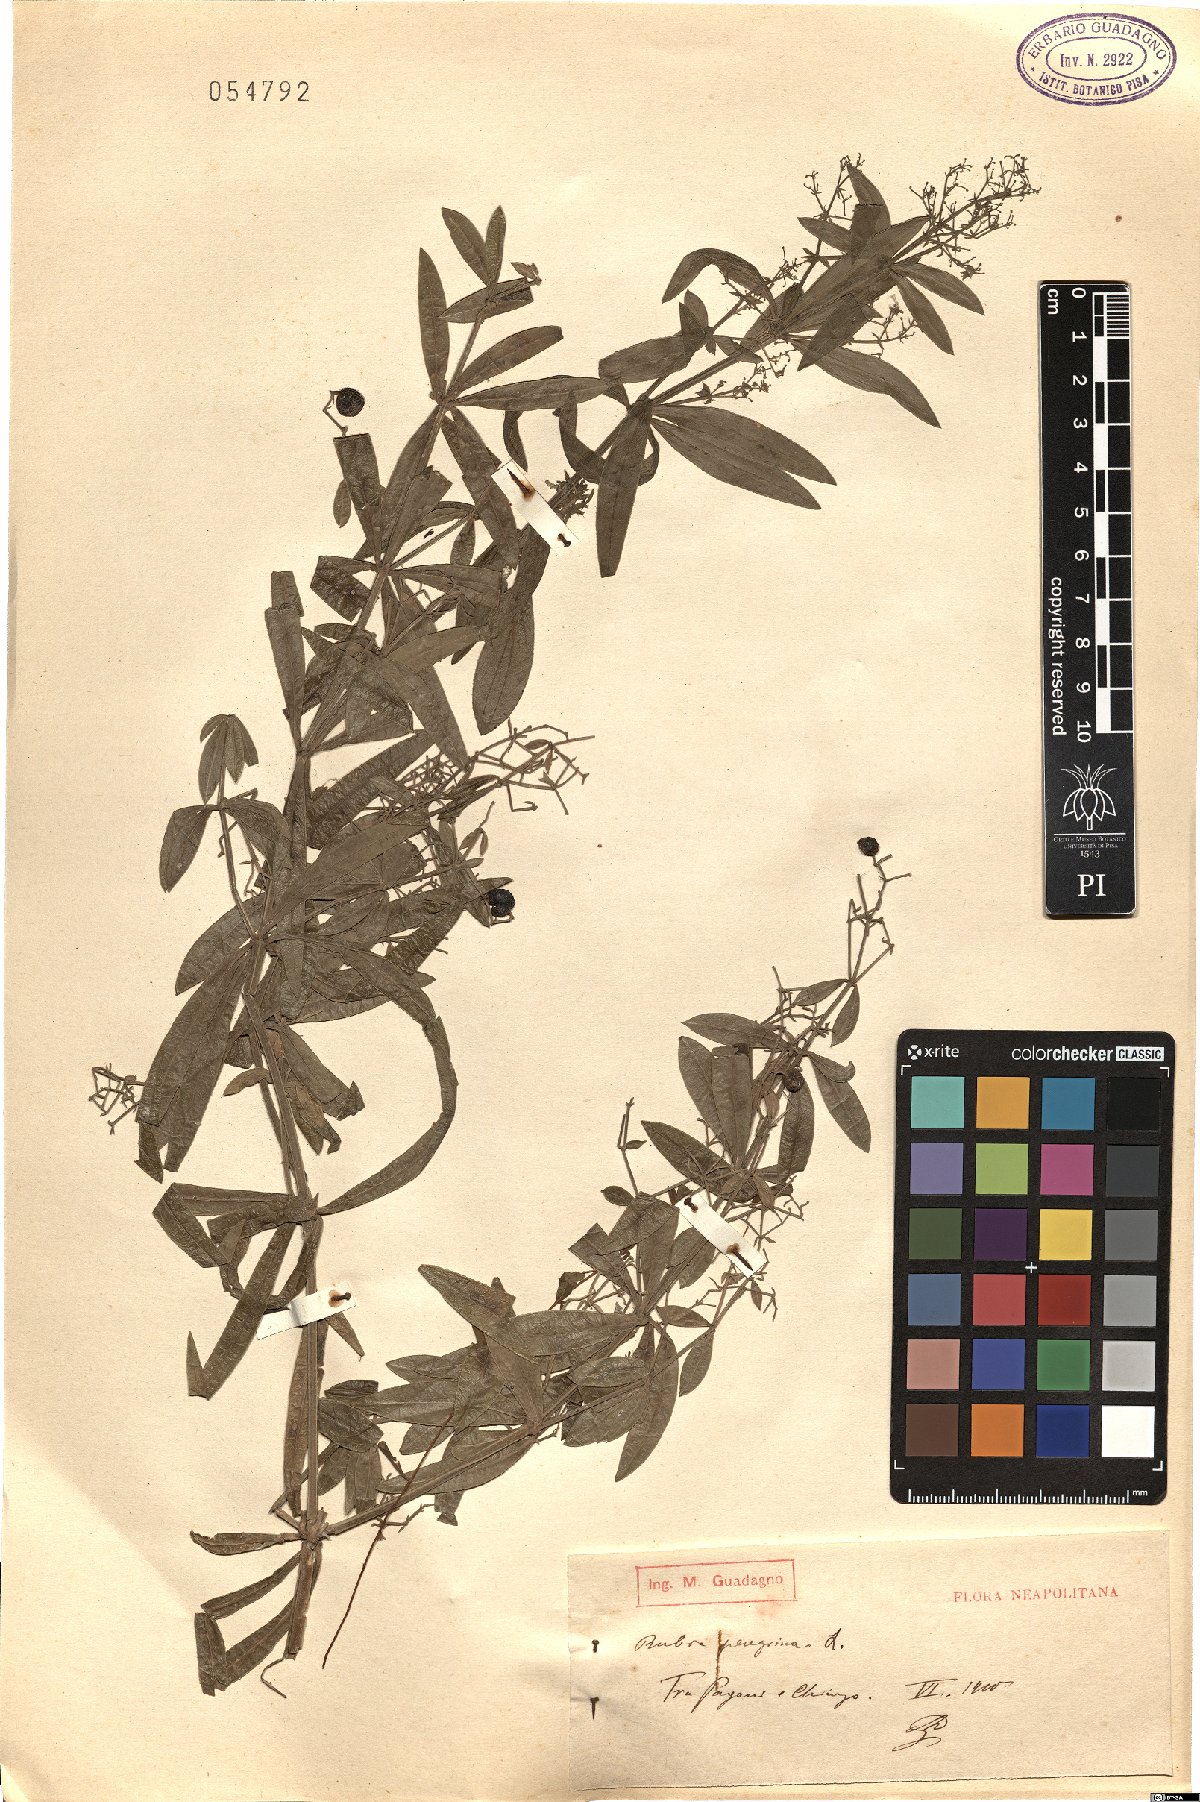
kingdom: Plantae
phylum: Tracheophyta
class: Magnoliopsida
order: Gentianales
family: Rubiaceae
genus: Rubia
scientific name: Rubia peregrina
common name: Wild madder
